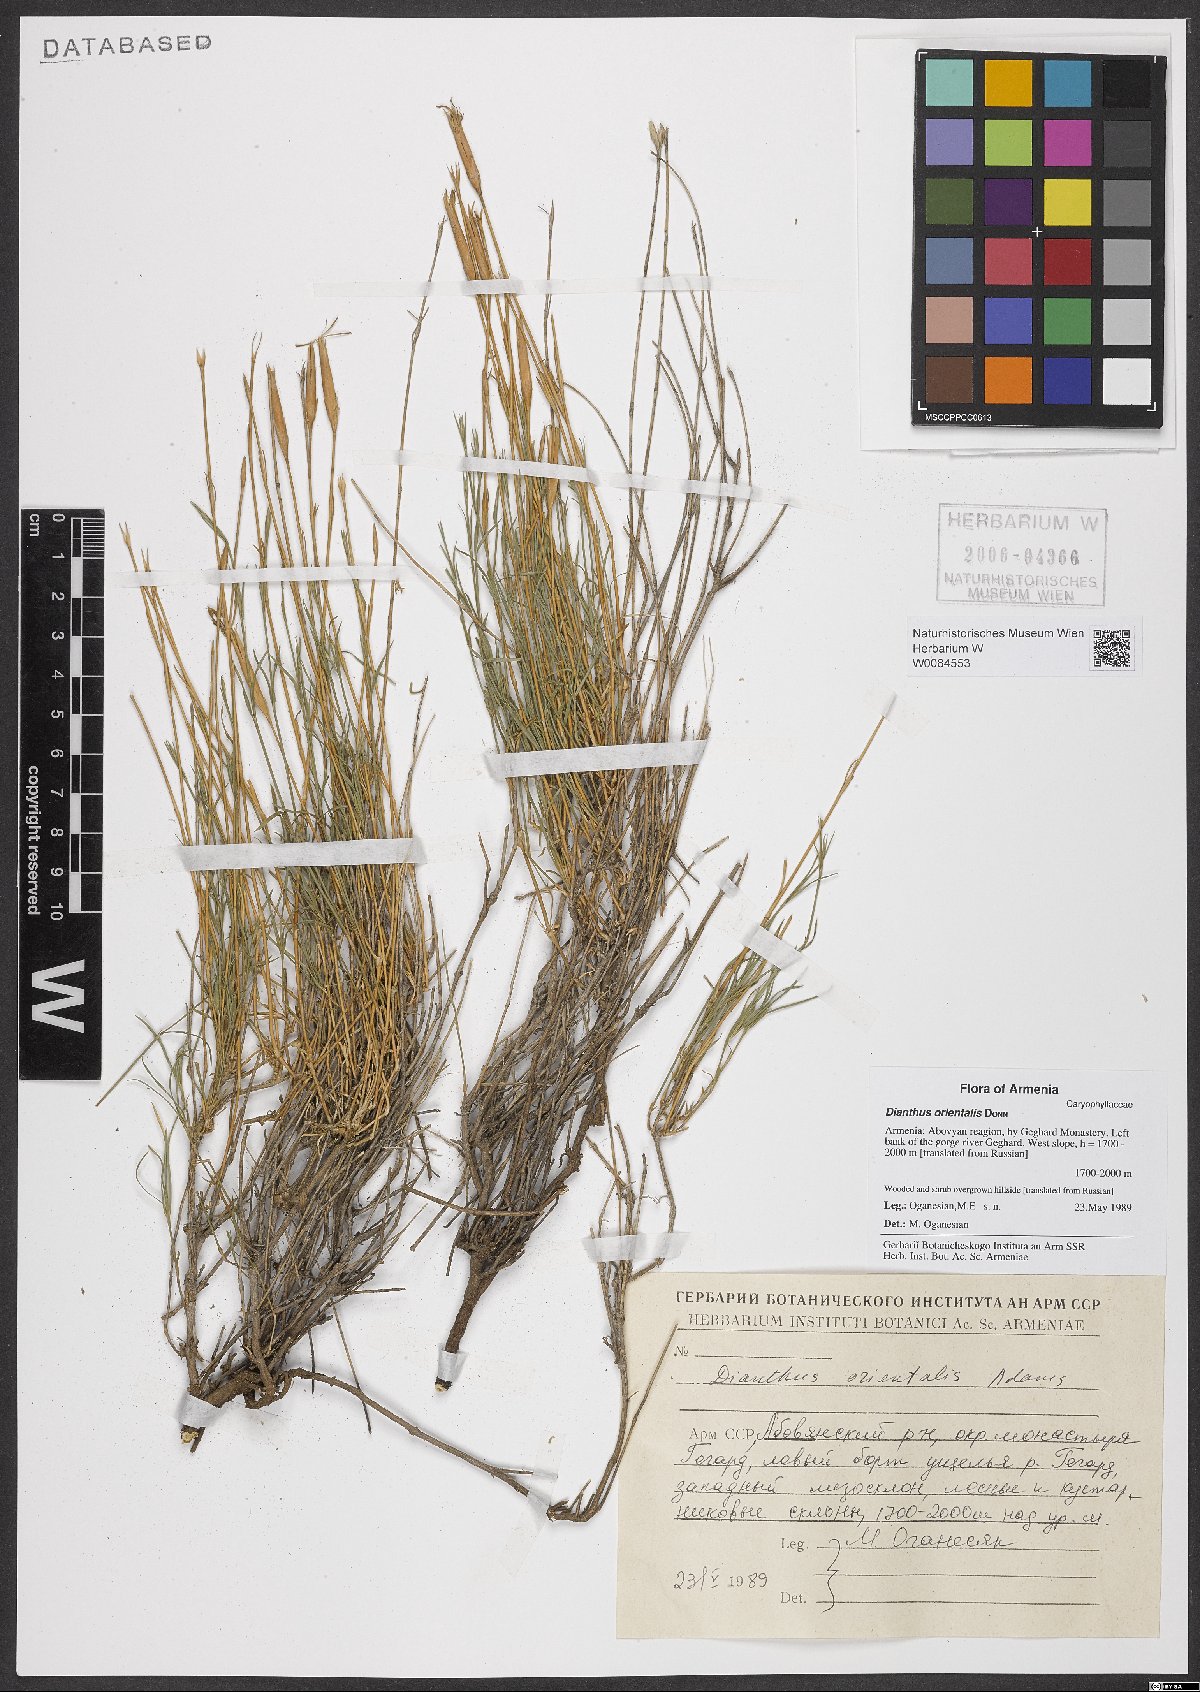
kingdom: Plantae
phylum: Tracheophyta
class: Magnoliopsida
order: Caryophyllales
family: Caryophyllaceae
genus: Dianthus
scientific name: Dianthus orientalis
